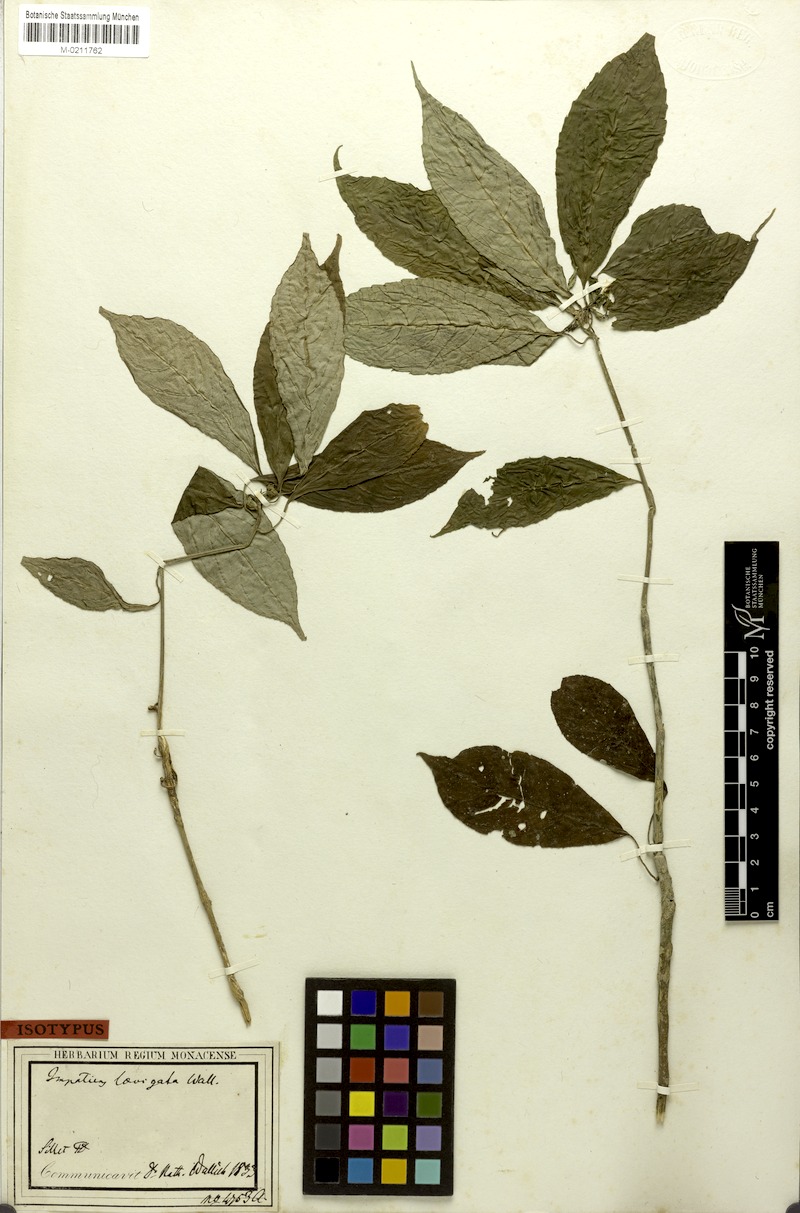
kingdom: Plantae
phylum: Tracheophyta
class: Magnoliopsida
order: Ericales
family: Balsaminaceae
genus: Impatiens
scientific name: Impatiens laevigata
